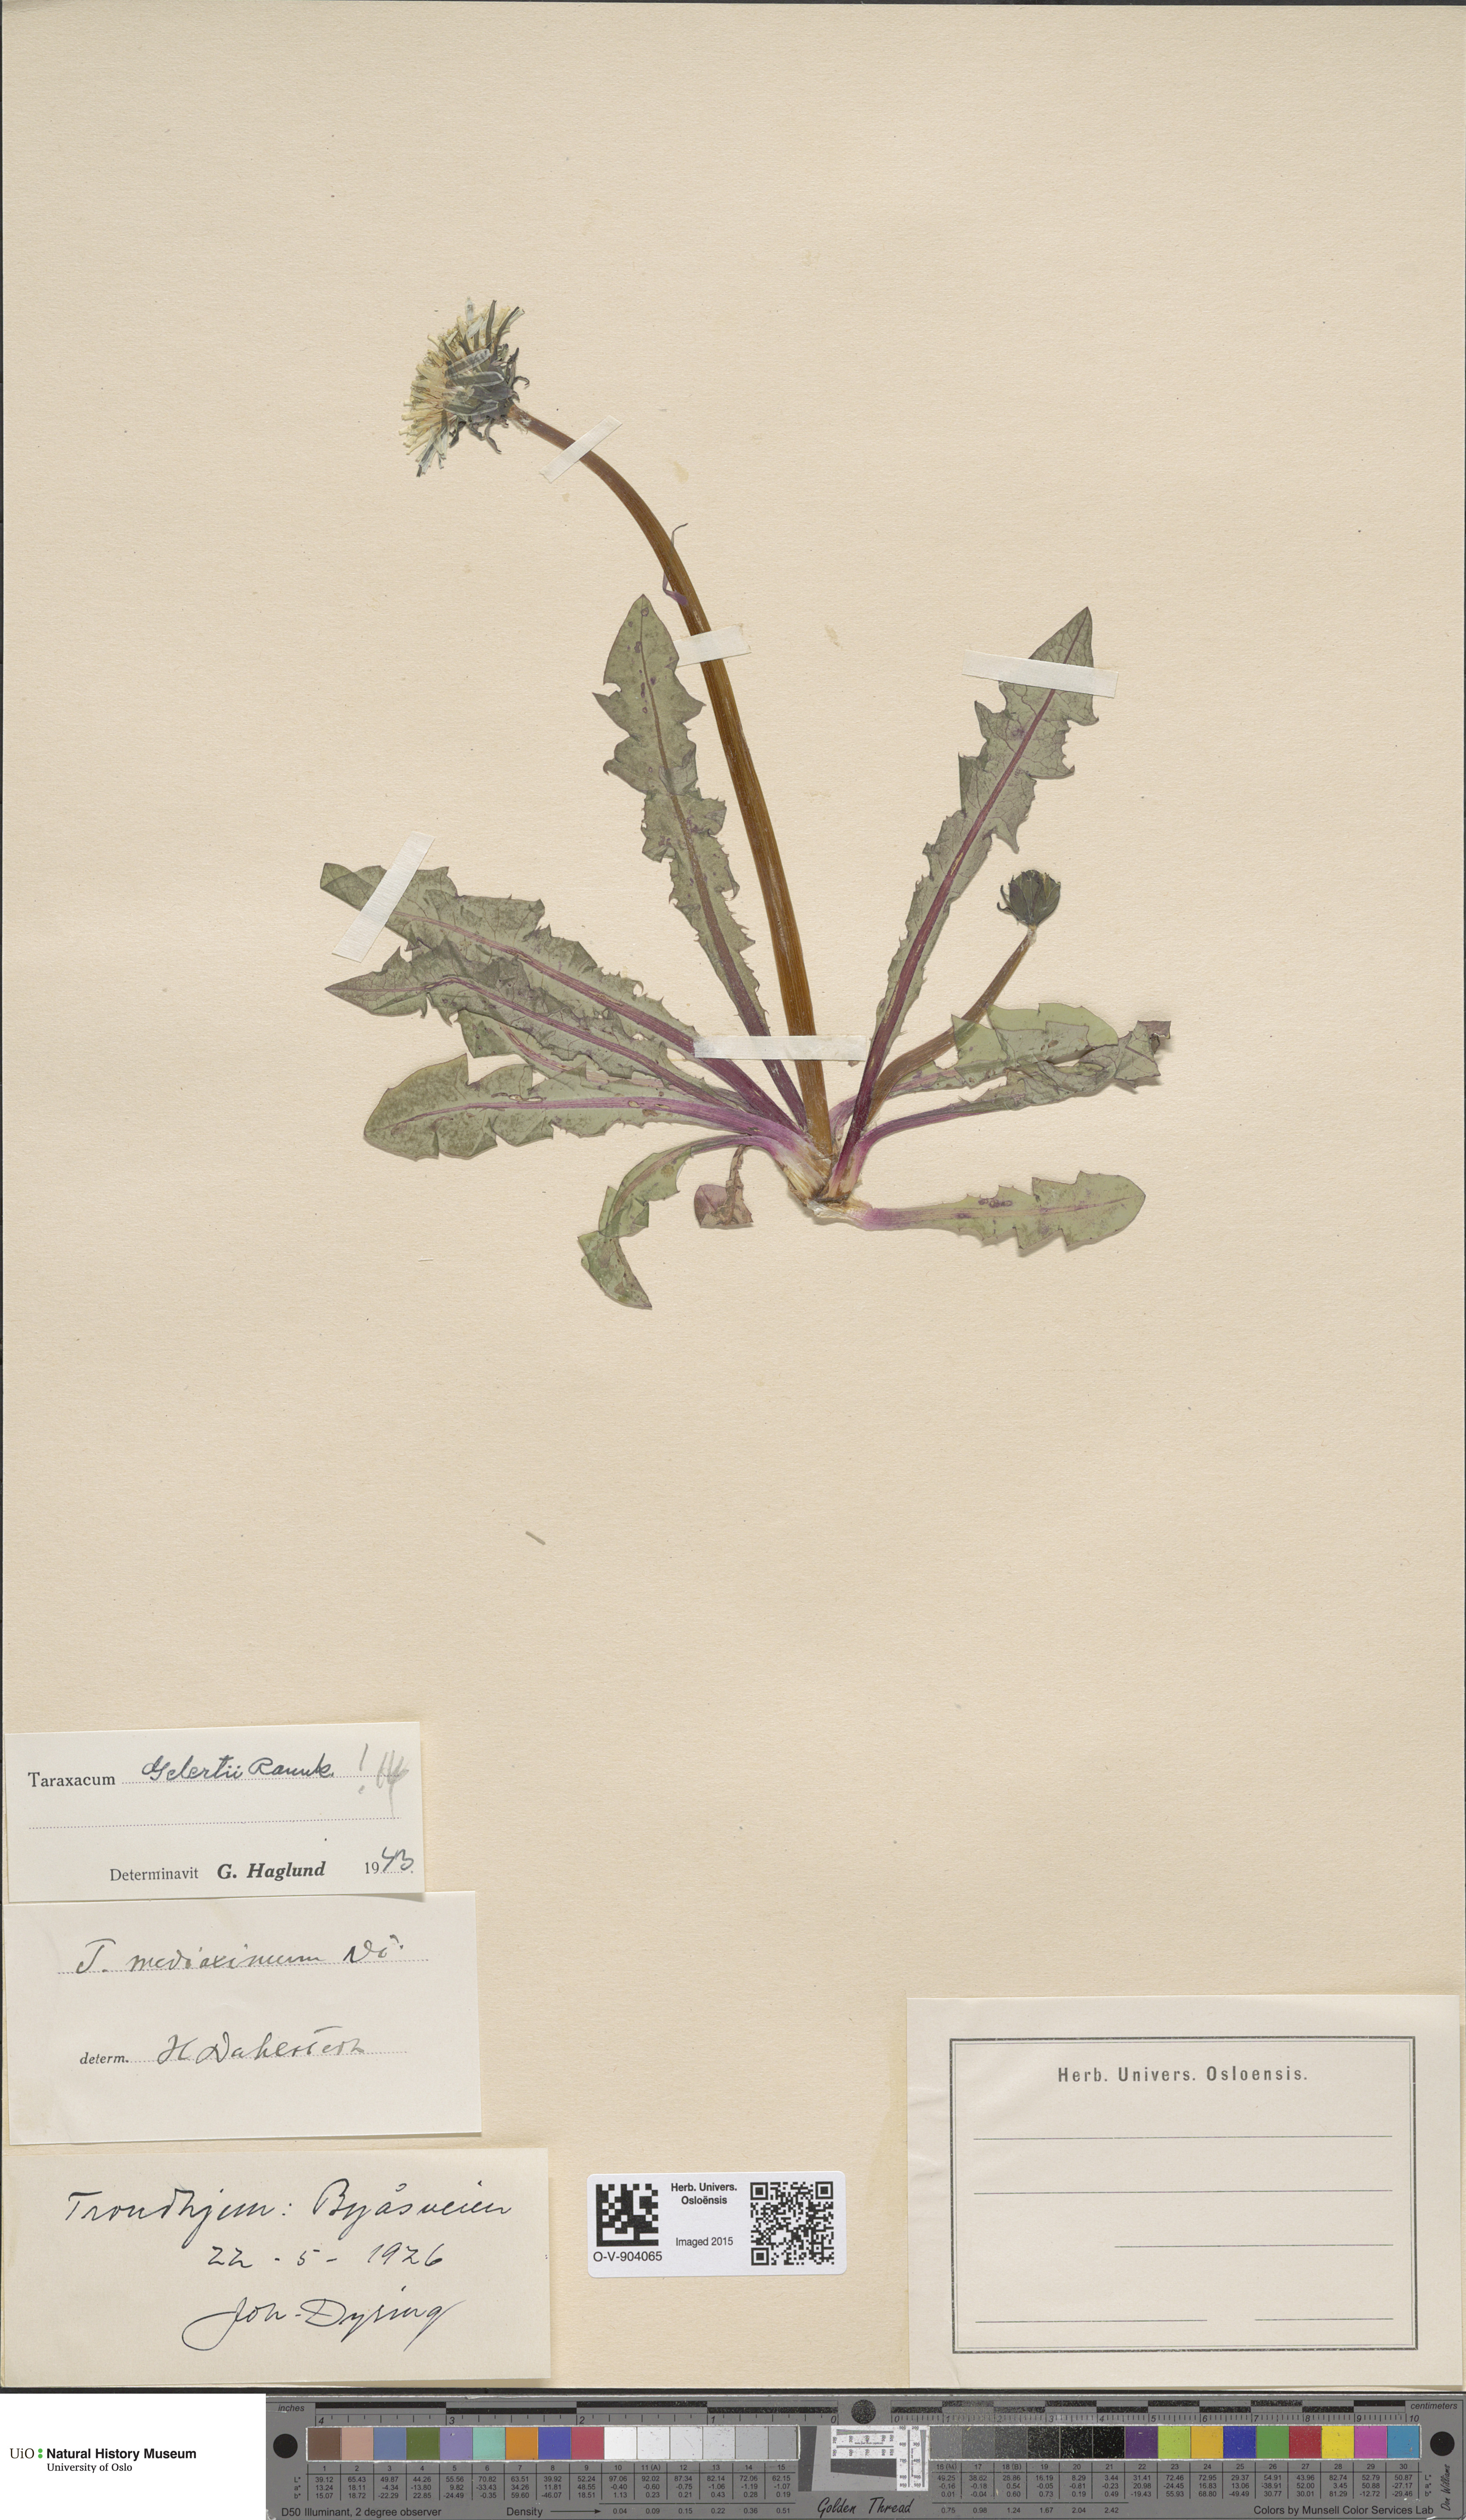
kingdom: Plantae
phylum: Tracheophyta
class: Magnoliopsida
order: Asterales
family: Asteraceae
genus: Taraxacum
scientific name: Taraxacum gelertii
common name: Gelert's dandelion
